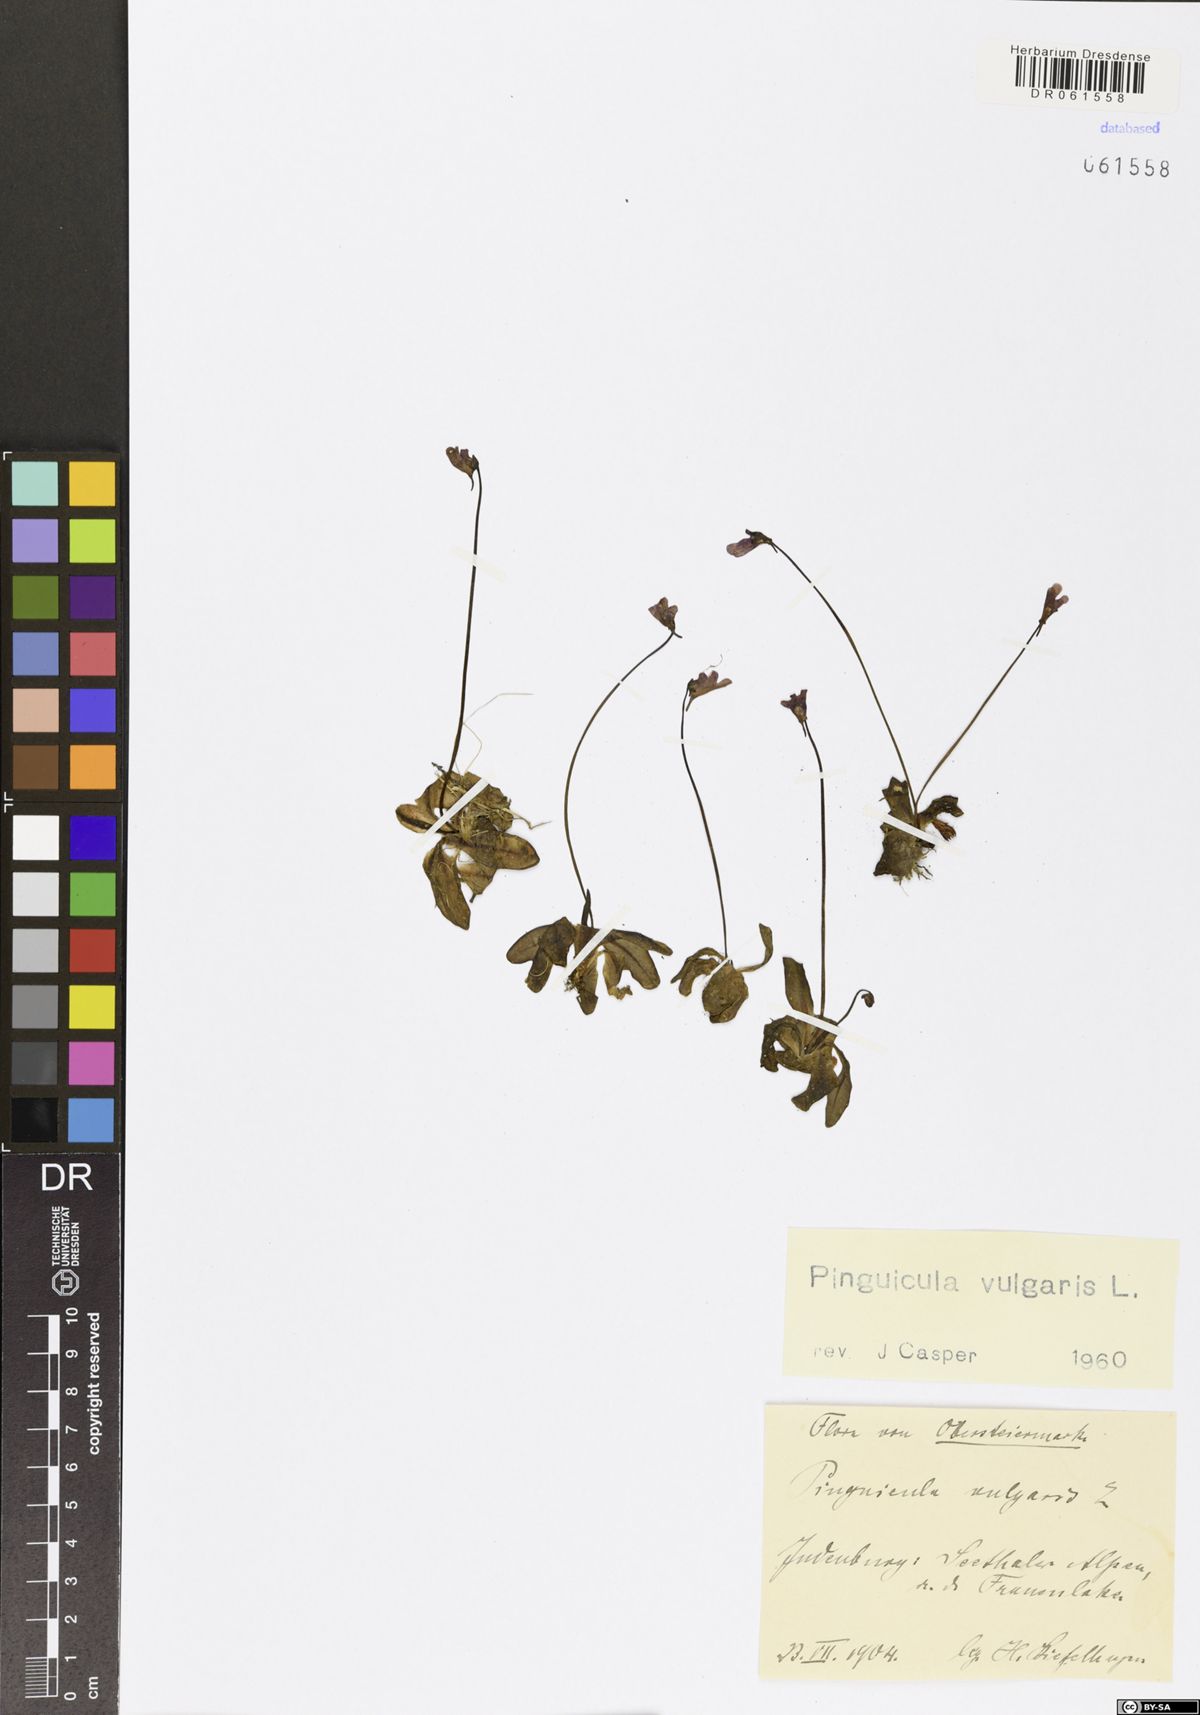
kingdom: Plantae
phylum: Tracheophyta
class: Magnoliopsida
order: Lamiales
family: Lentibulariaceae
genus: Pinguicula
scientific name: Pinguicula vulgaris
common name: Common butterwort
